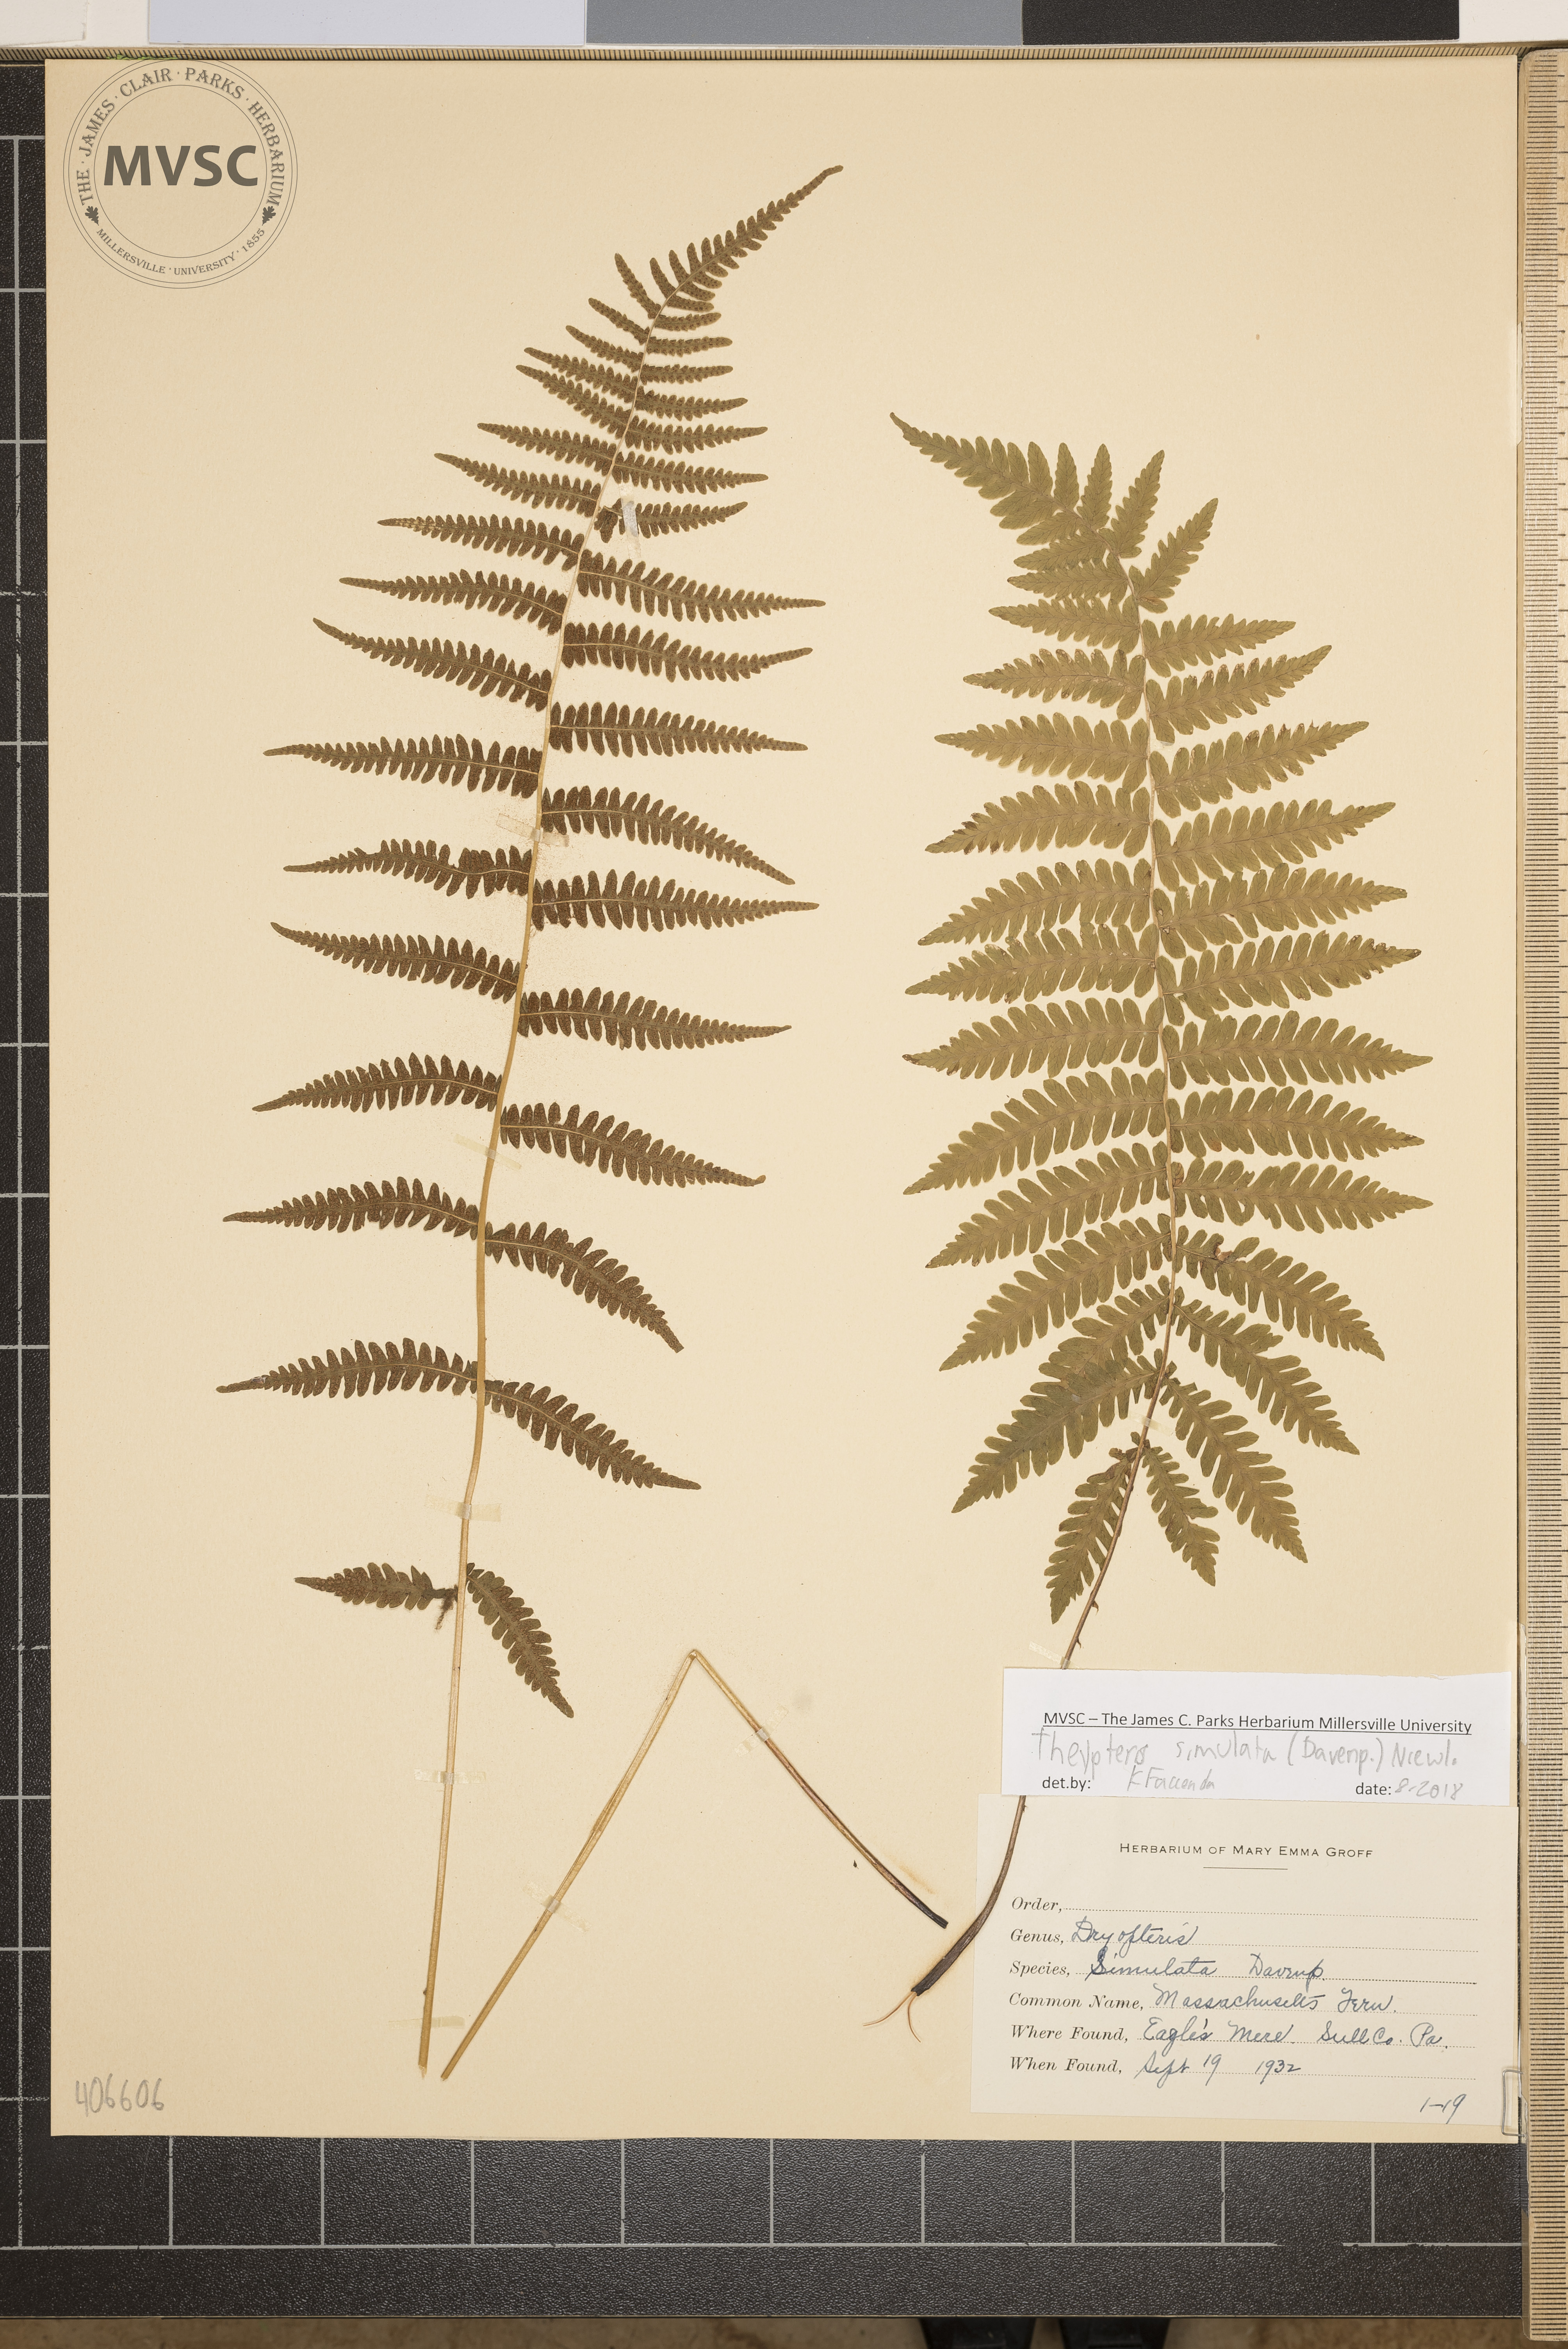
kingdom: Plantae
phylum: Tracheophyta
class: Polypodiopsida
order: Polypodiales
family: Thelypteridaceae
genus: Coryphopteris
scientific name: Coryphopteris simulata
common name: Massachusetts Fern
